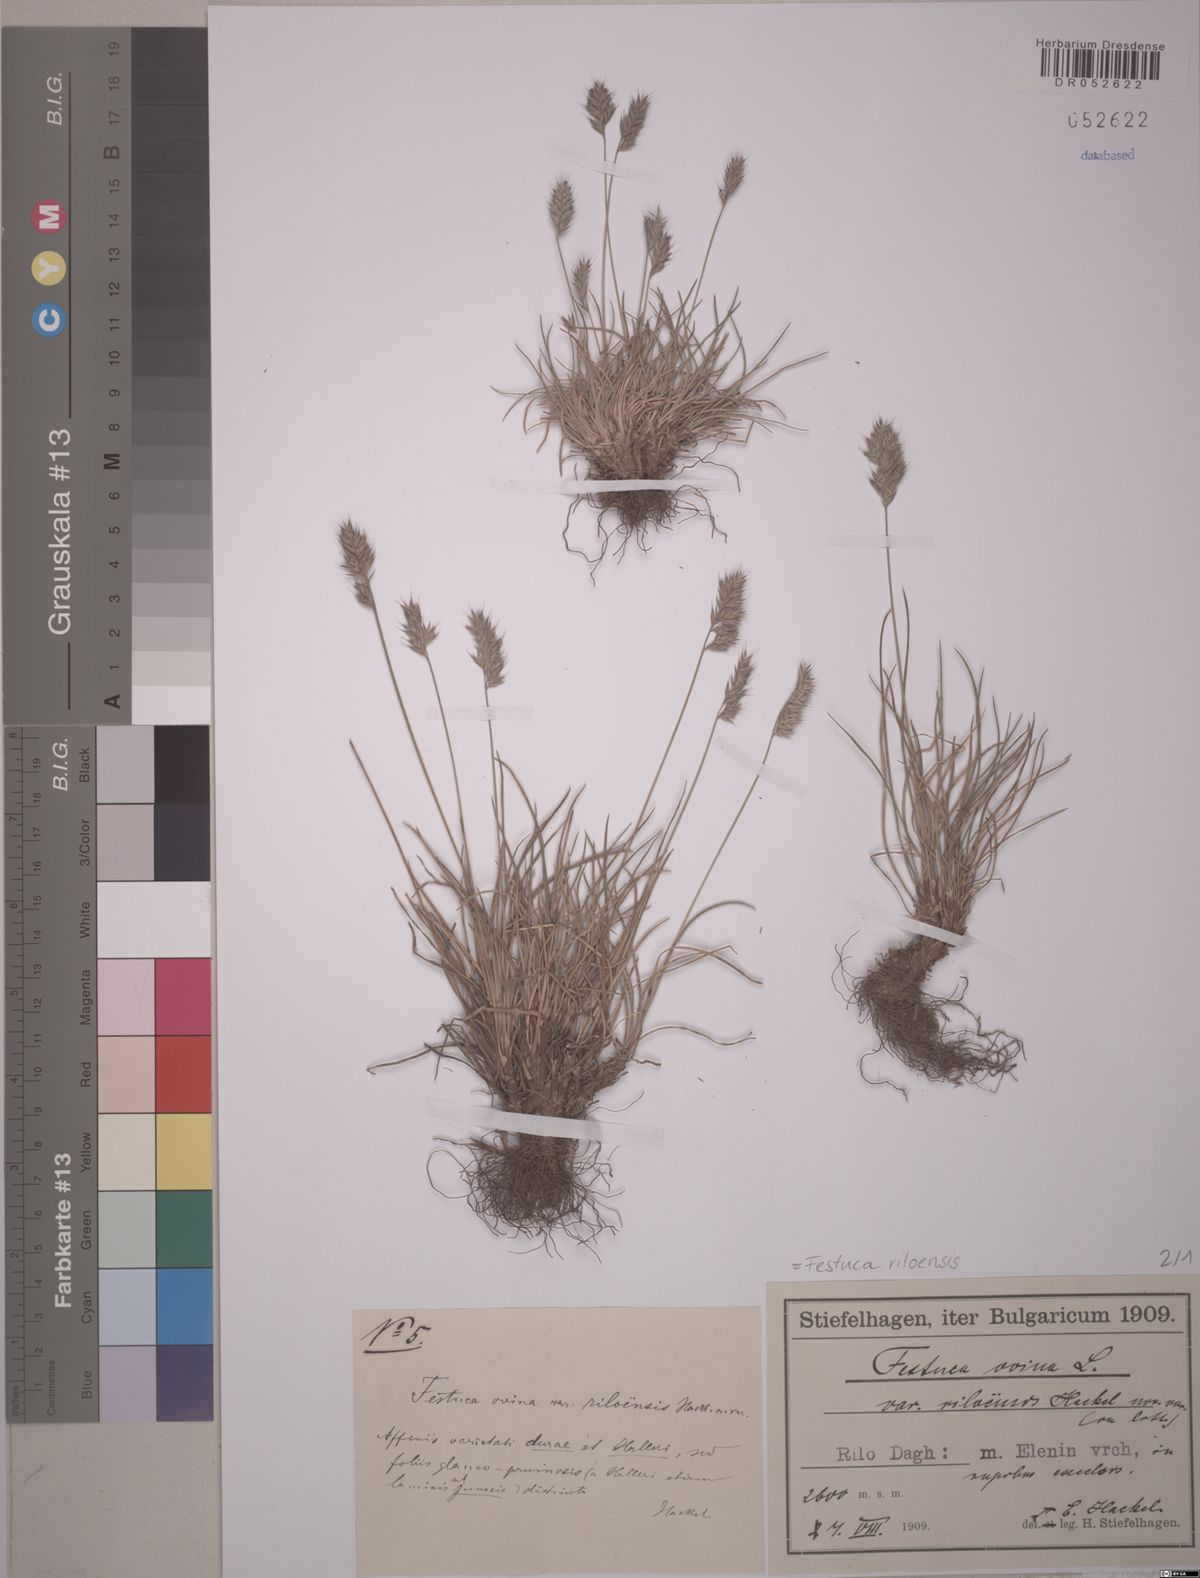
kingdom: Plantae
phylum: Tracheophyta
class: Liliopsida
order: Poales
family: Poaceae
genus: Festuca
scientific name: Festuca riloensis
